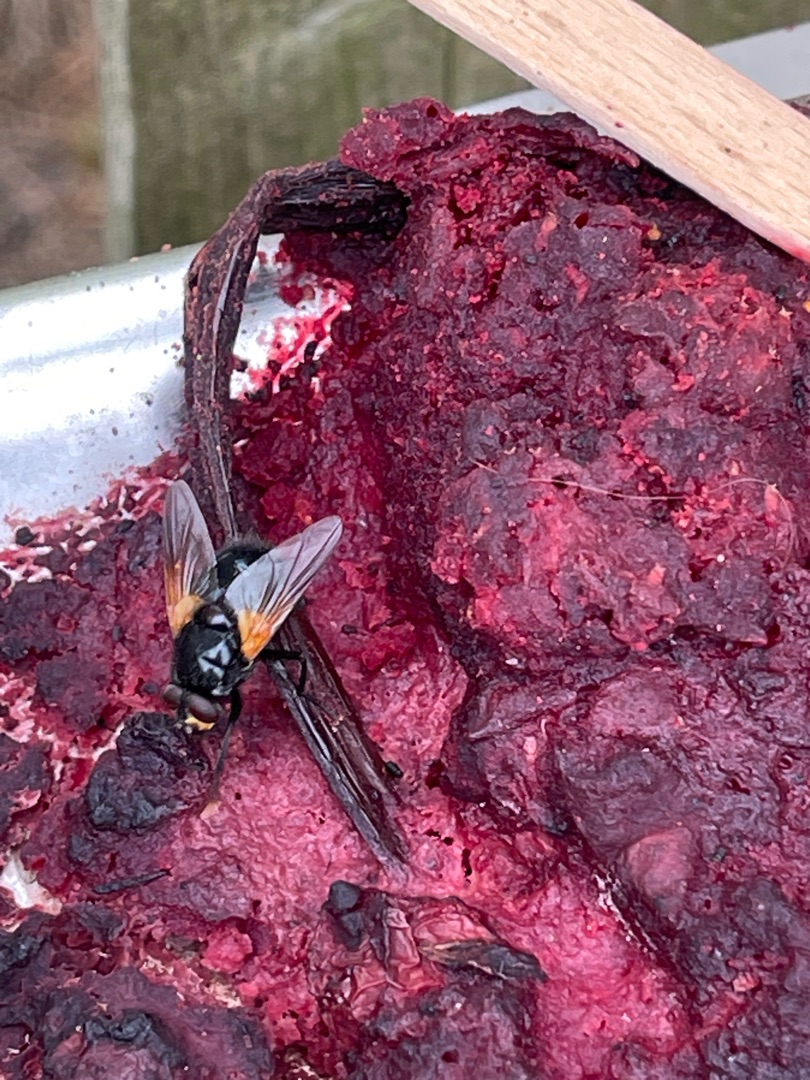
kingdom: Animalia
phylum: Arthropoda
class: Insecta
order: Diptera
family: Muscidae
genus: Mesembrina
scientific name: Mesembrina meridiana
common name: Gulvinget flue
